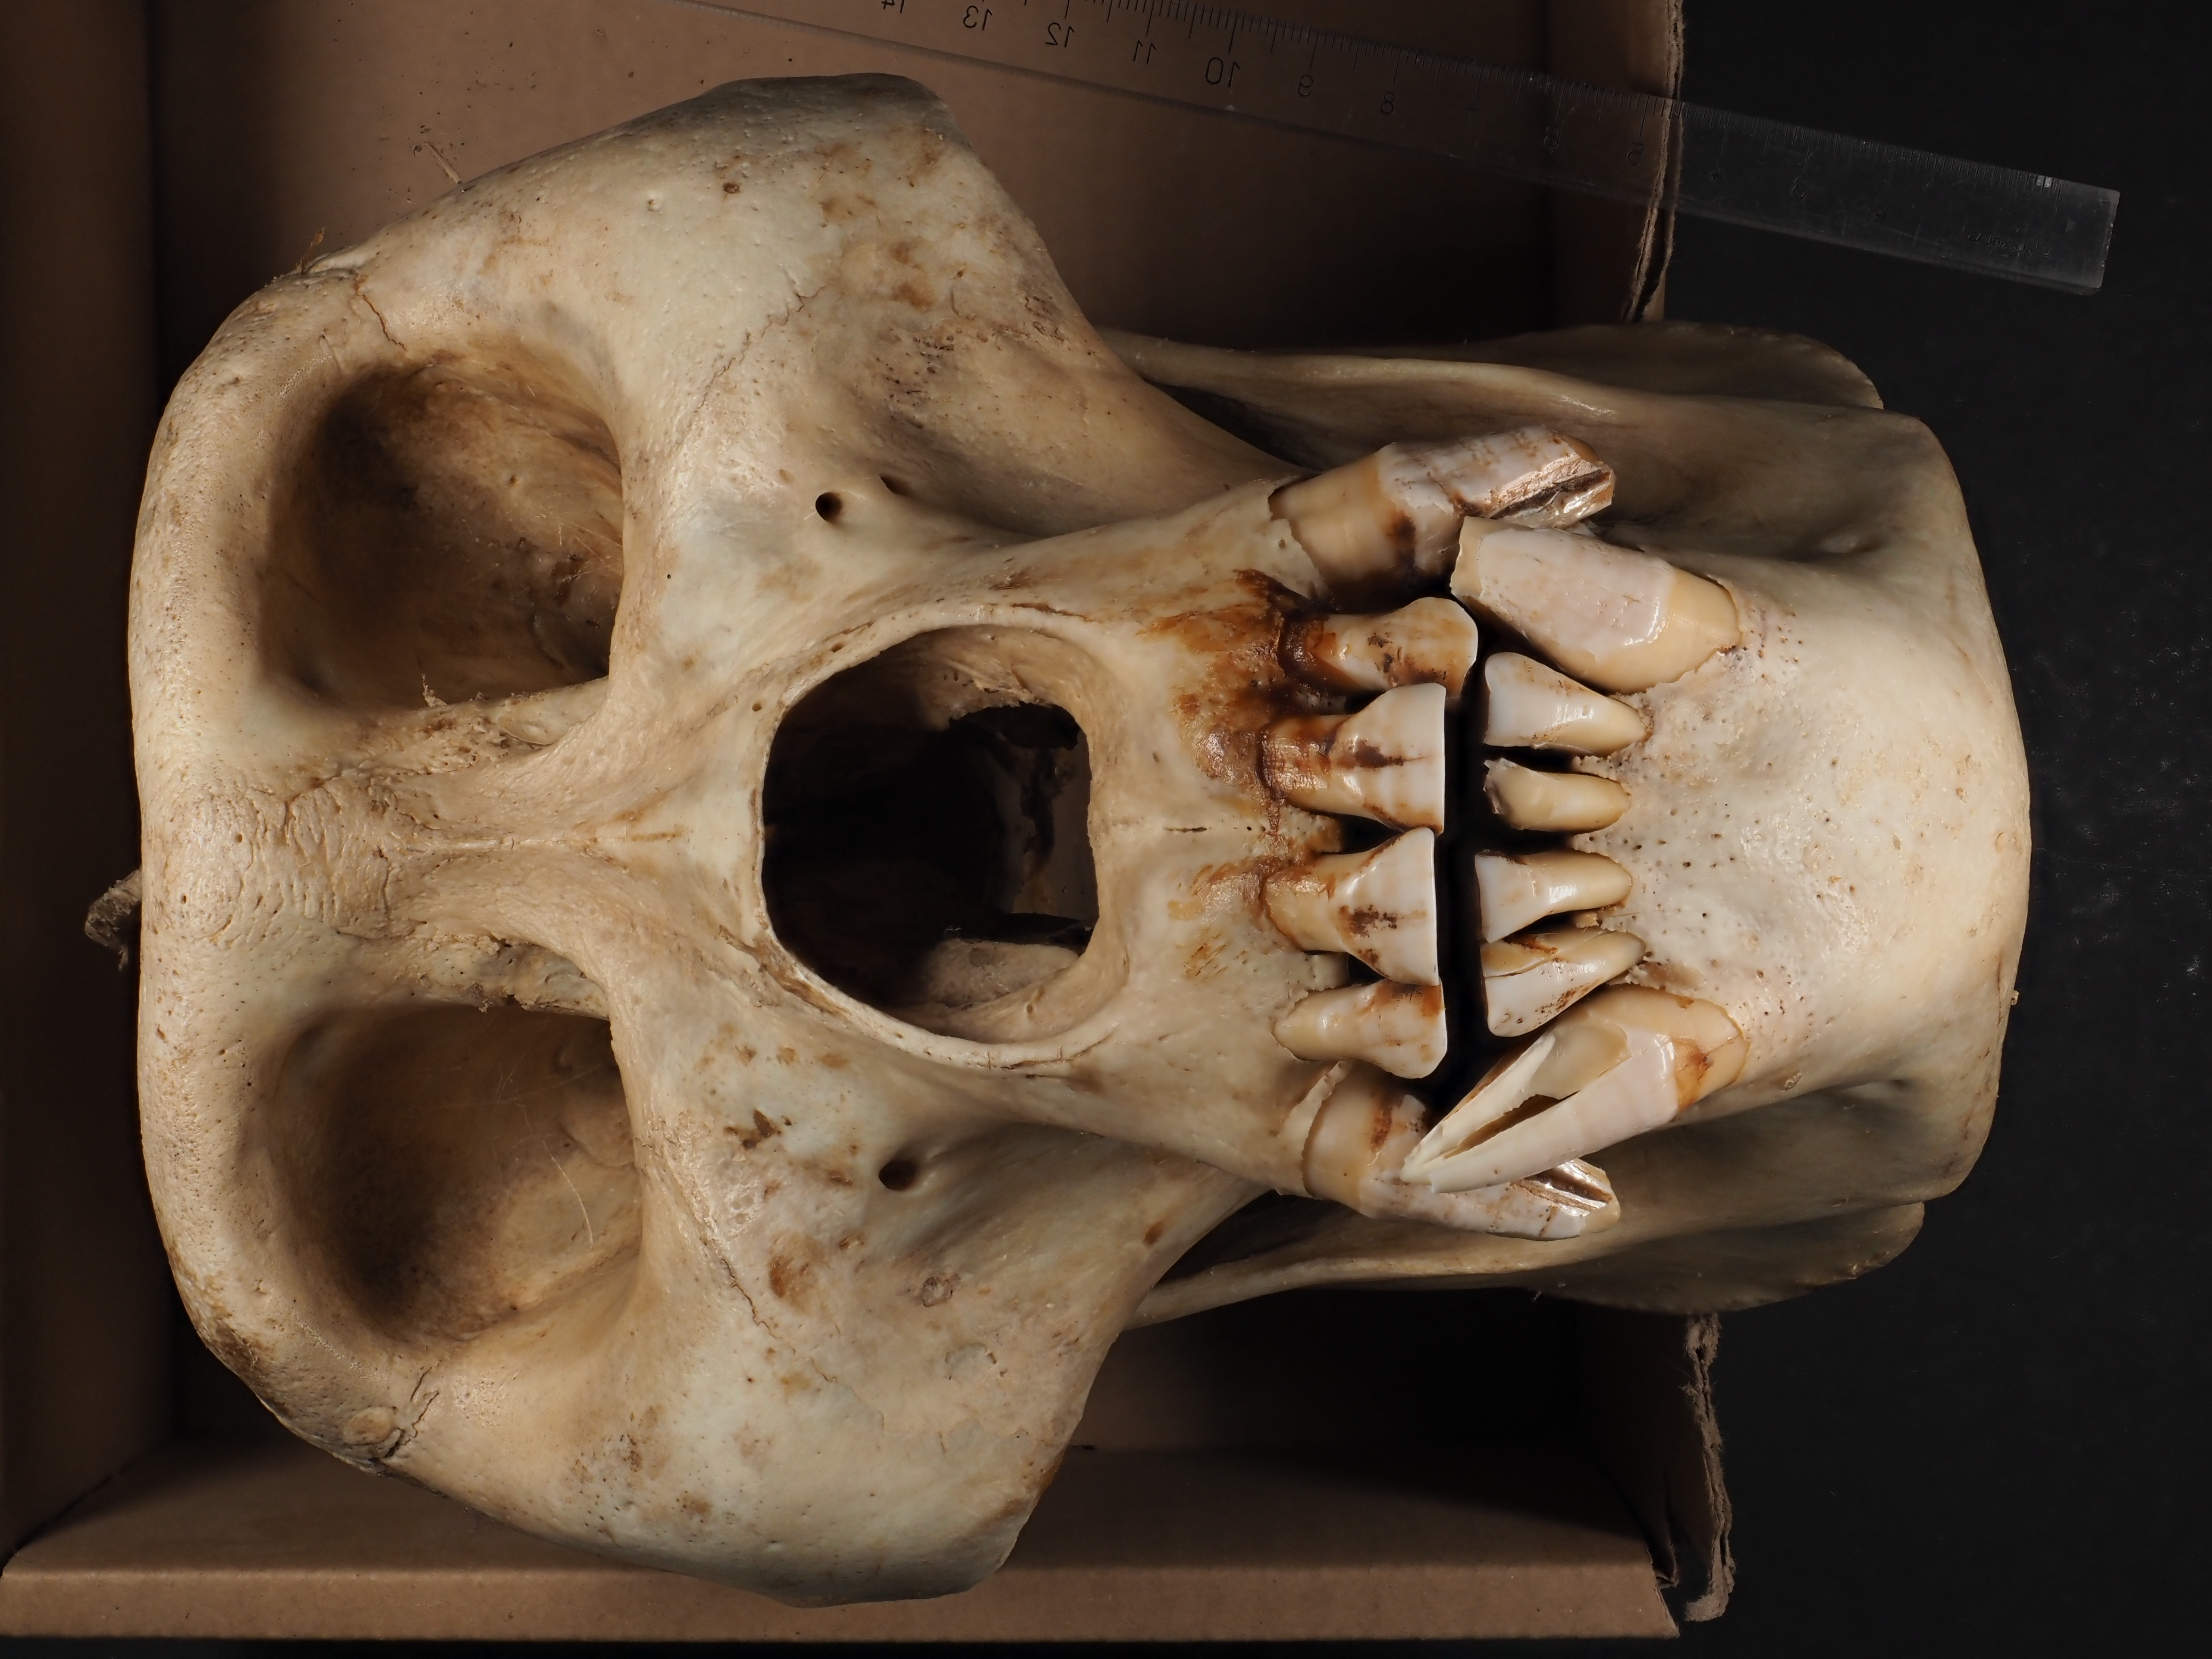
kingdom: Animalia
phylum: Chordata
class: Mammalia
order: Primates
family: Hominidae
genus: Gorilla
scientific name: Gorilla gorilla
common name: Western gorilla
